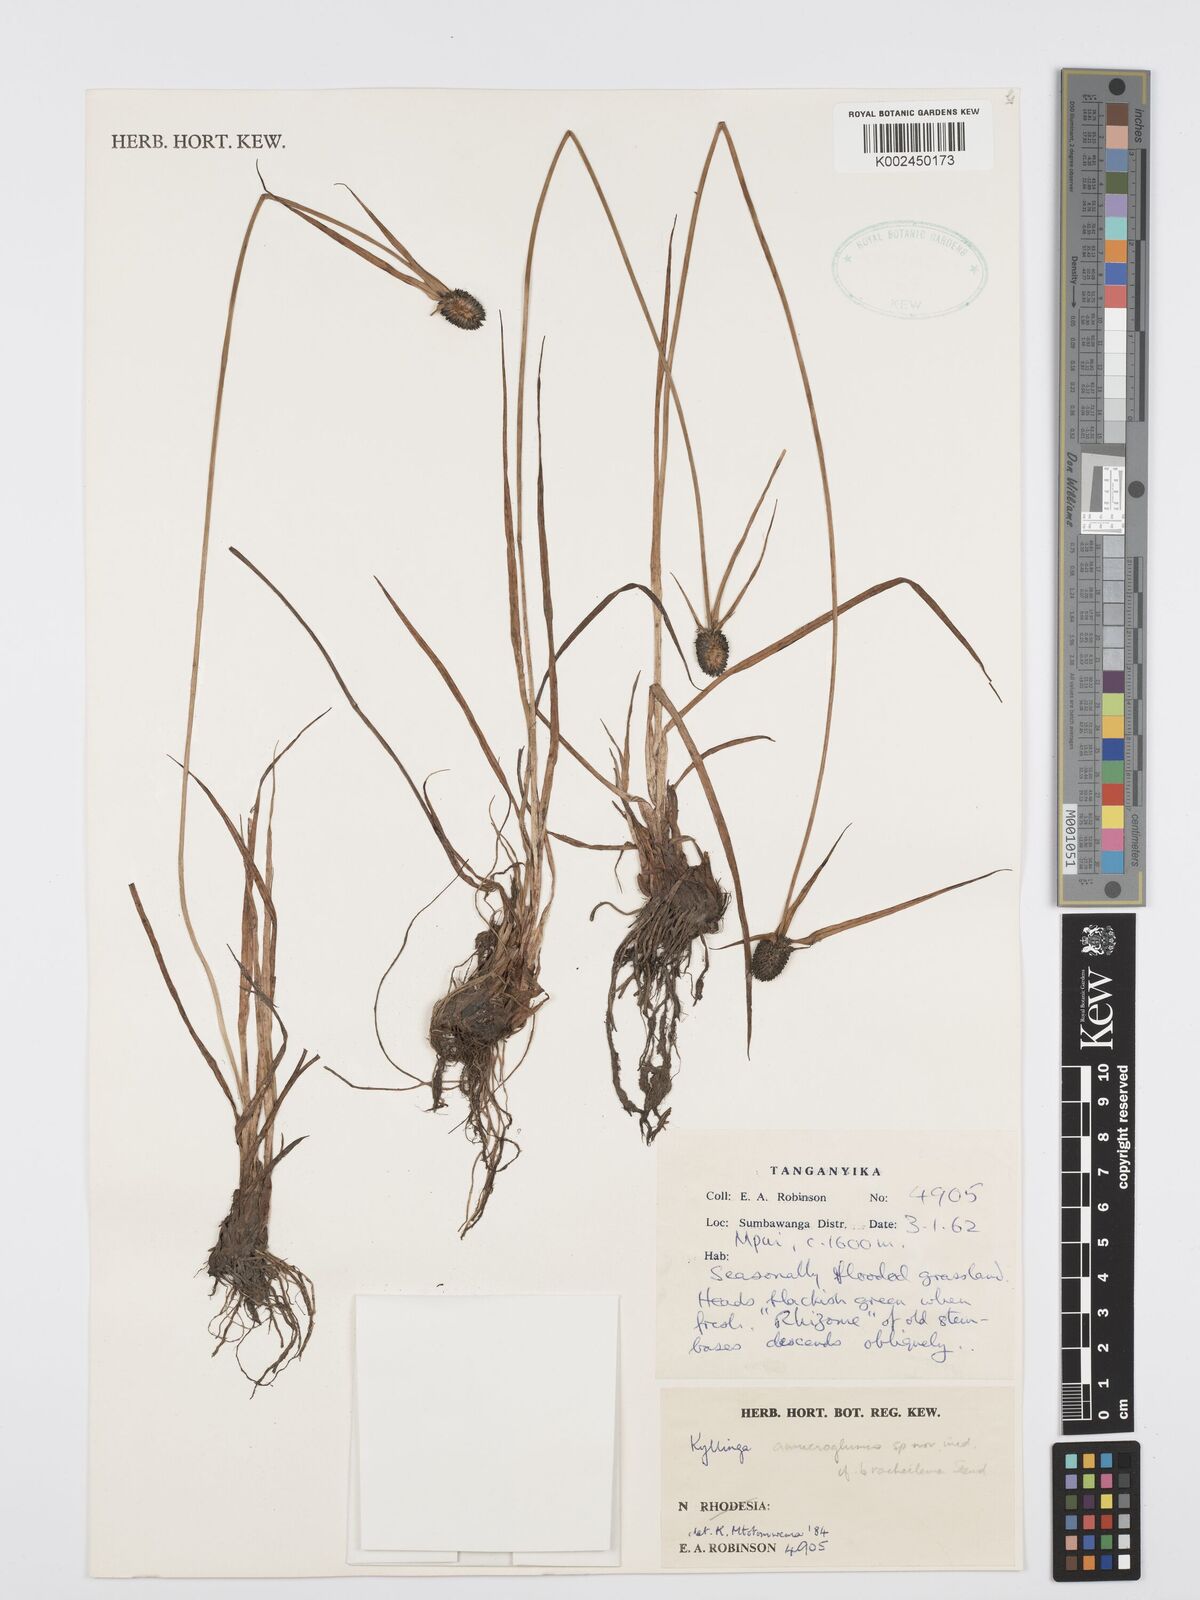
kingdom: Plantae
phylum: Tracheophyta
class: Liliopsida
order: Poales
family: Cyperaceae
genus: Cyperus
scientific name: Cyperus
